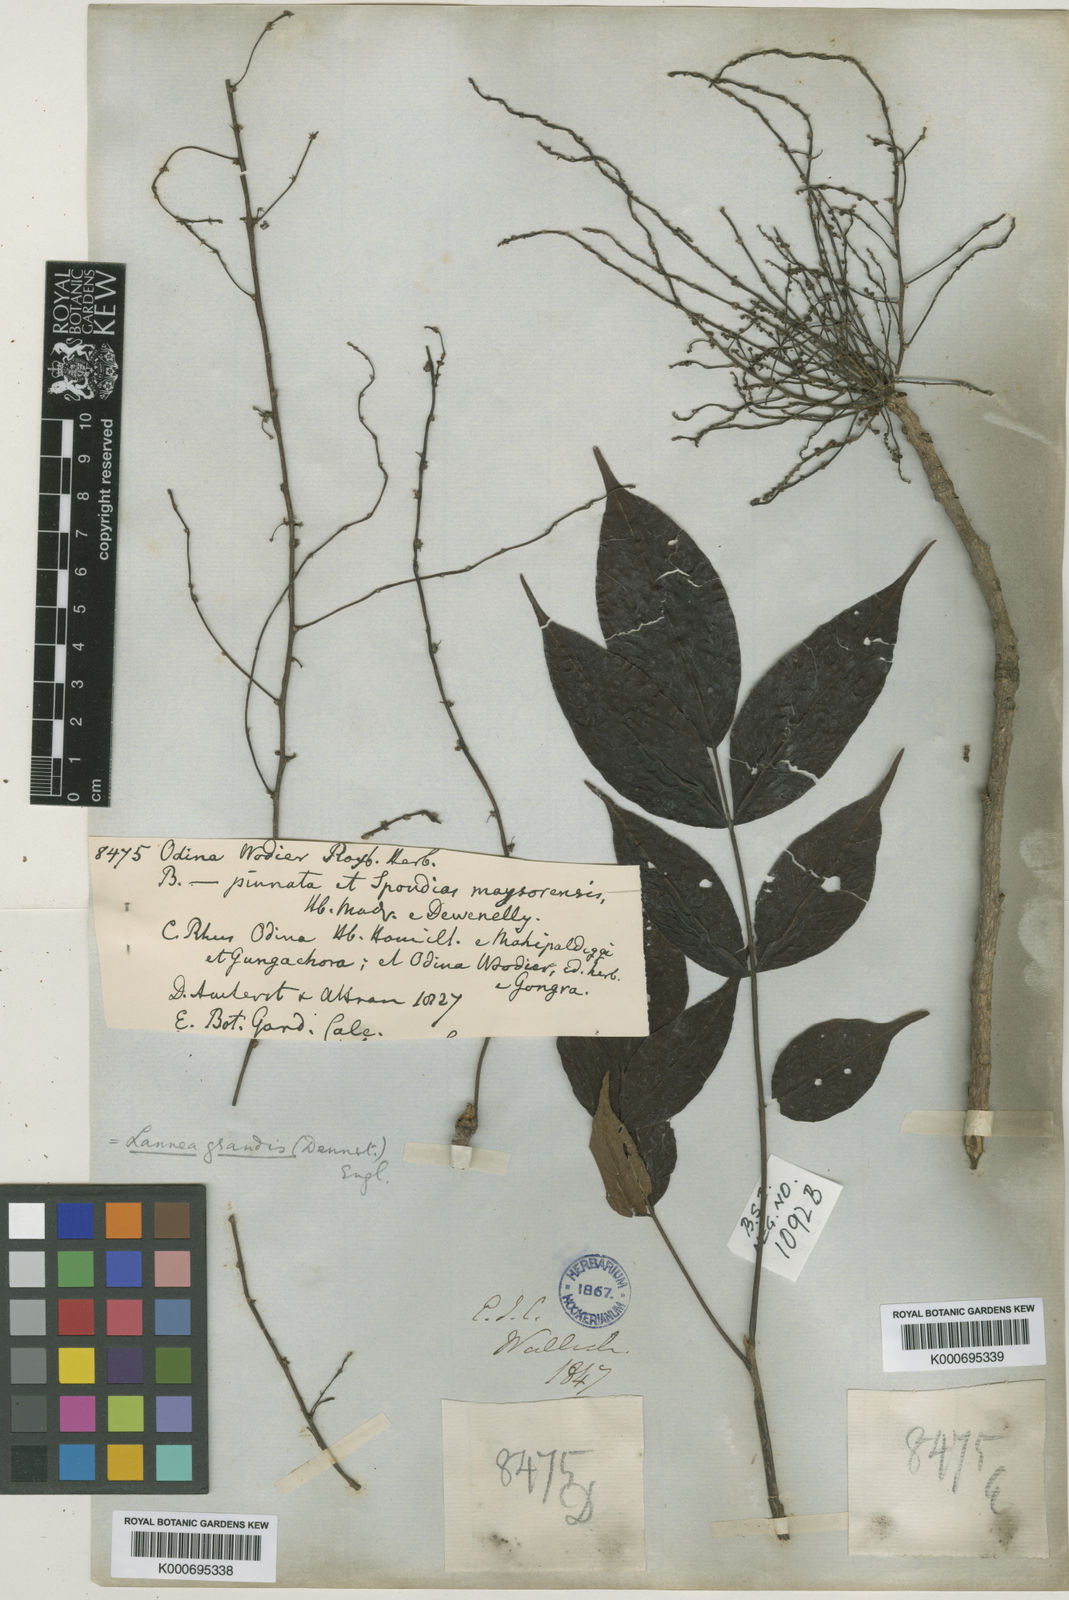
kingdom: Plantae
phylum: Tracheophyta
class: Magnoliopsida
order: Sapindales
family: Anacardiaceae
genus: Lannea
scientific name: Lannea coromandelica
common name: Indian ash tree
